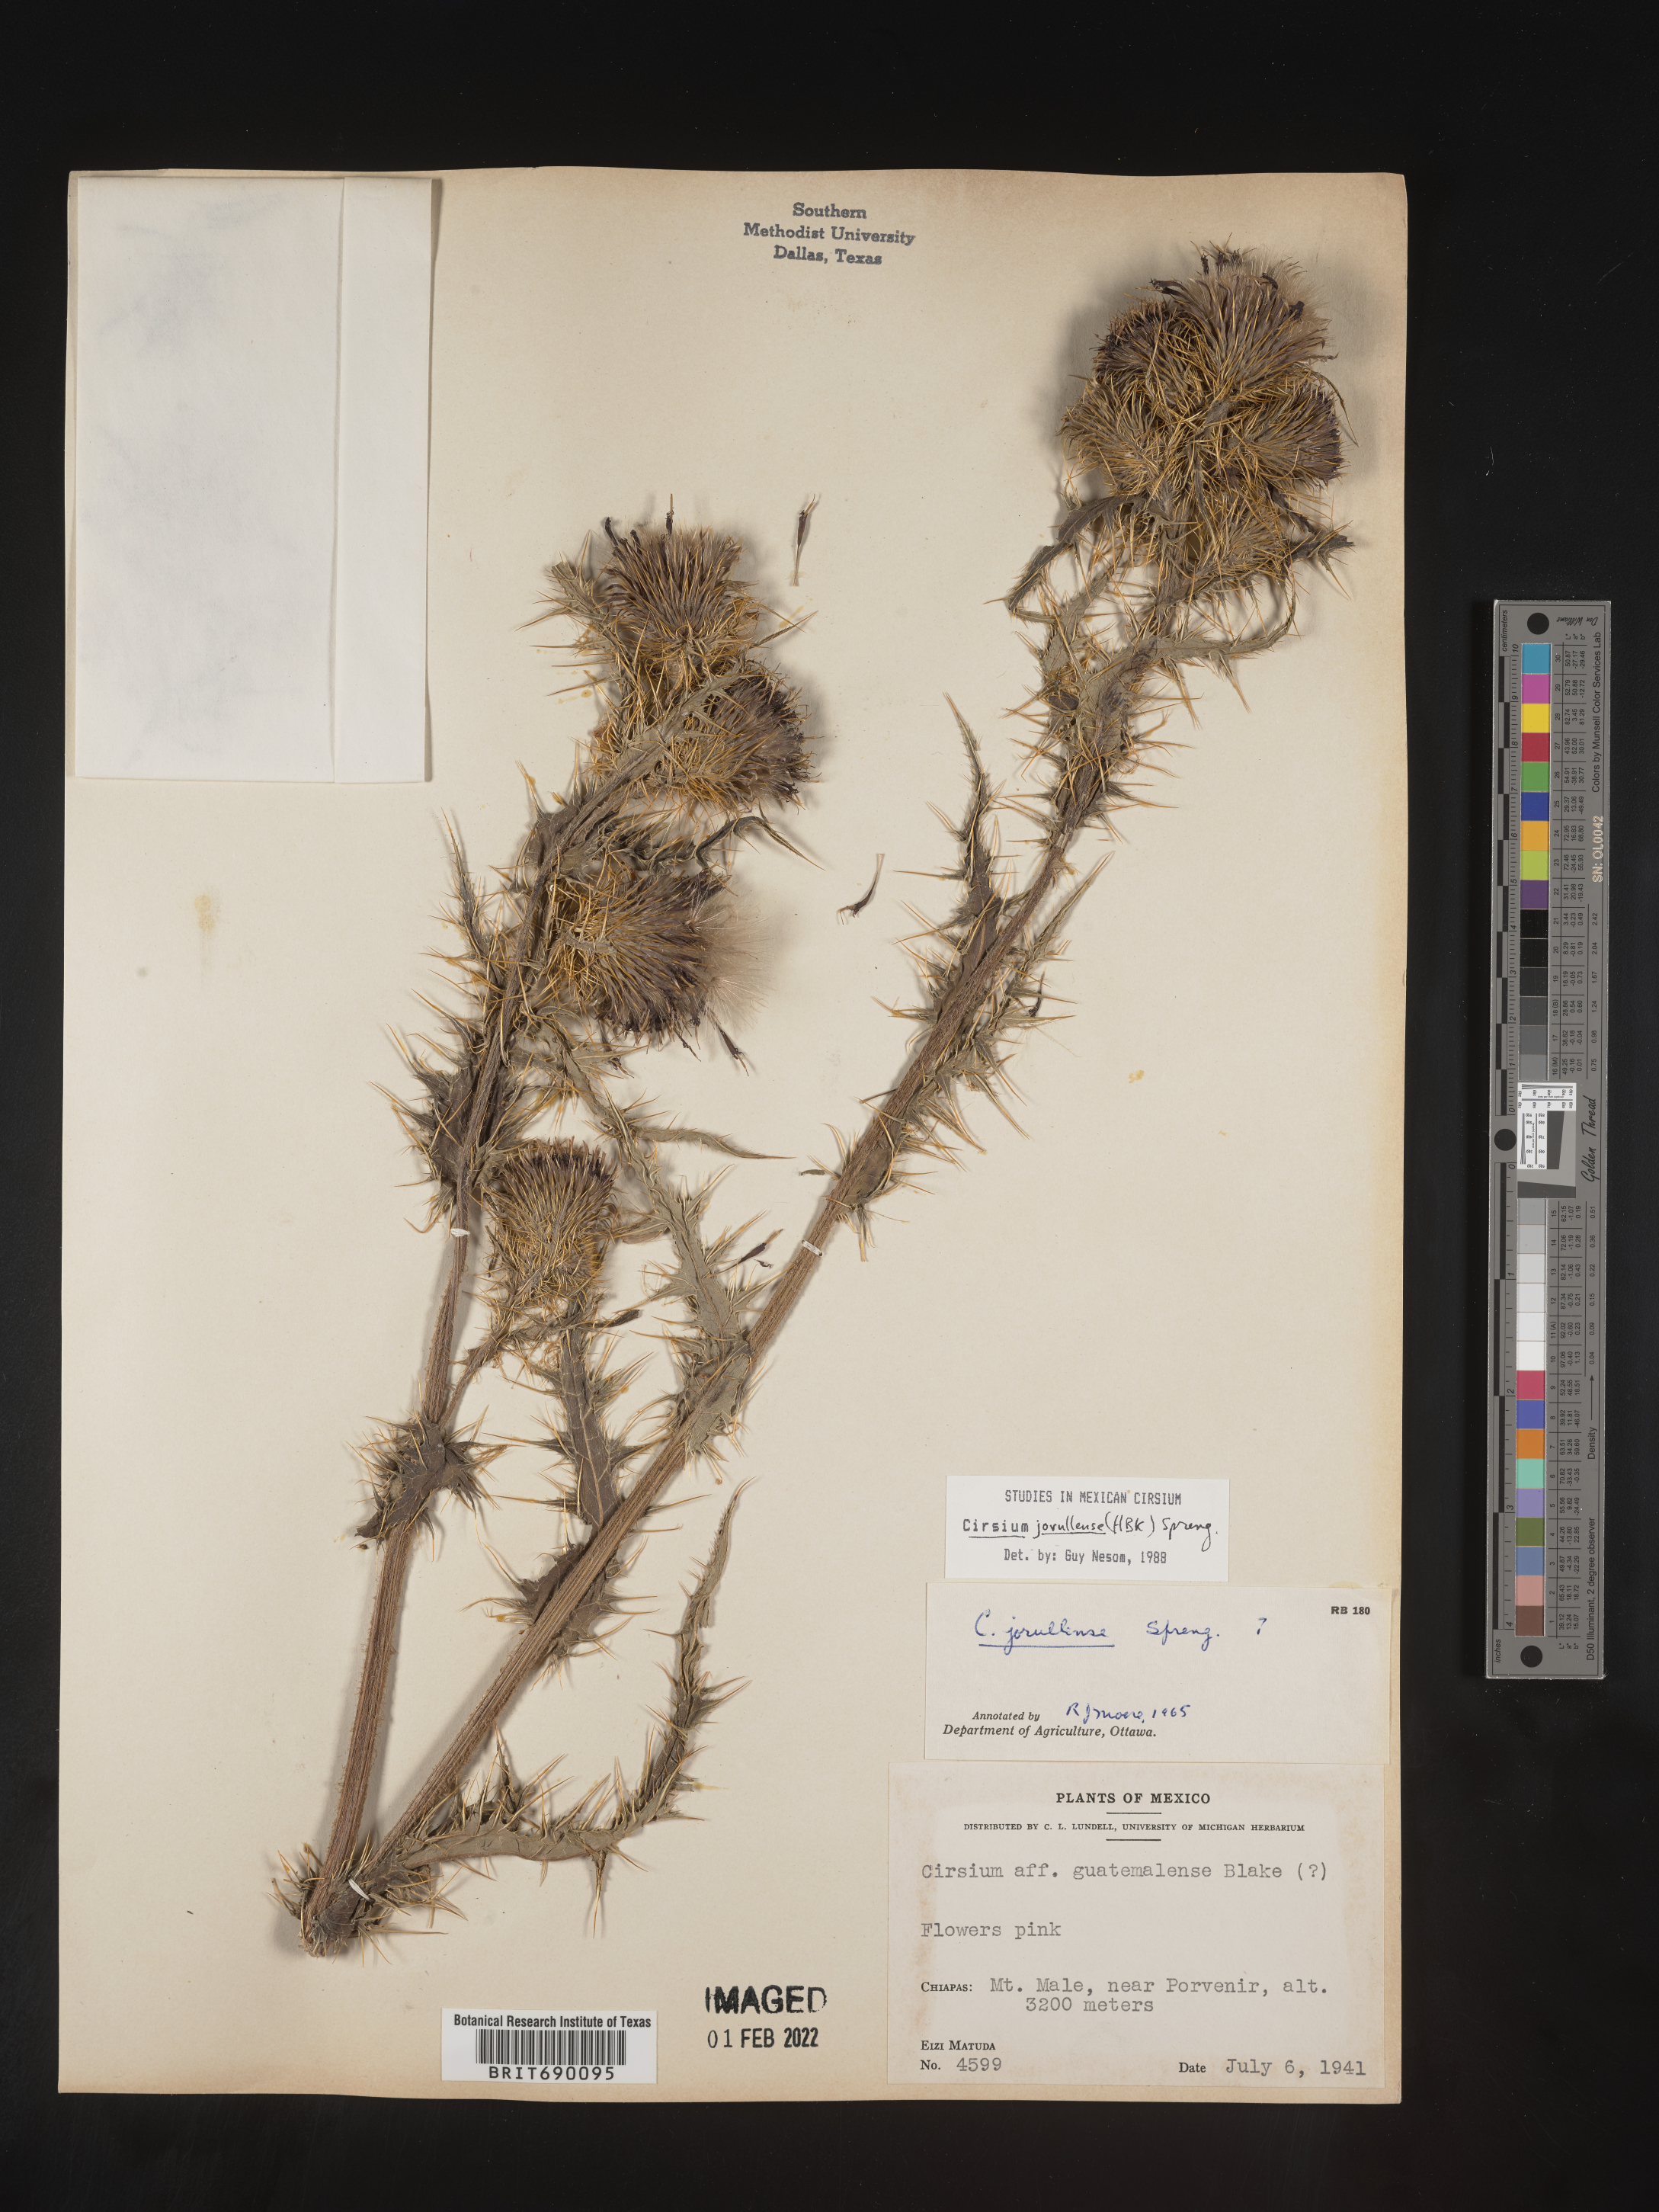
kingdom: Plantae
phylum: Tracheophyta
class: Magnoliopsida
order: Asterales
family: Asteraceae
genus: Cirsium
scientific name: Cirsium
